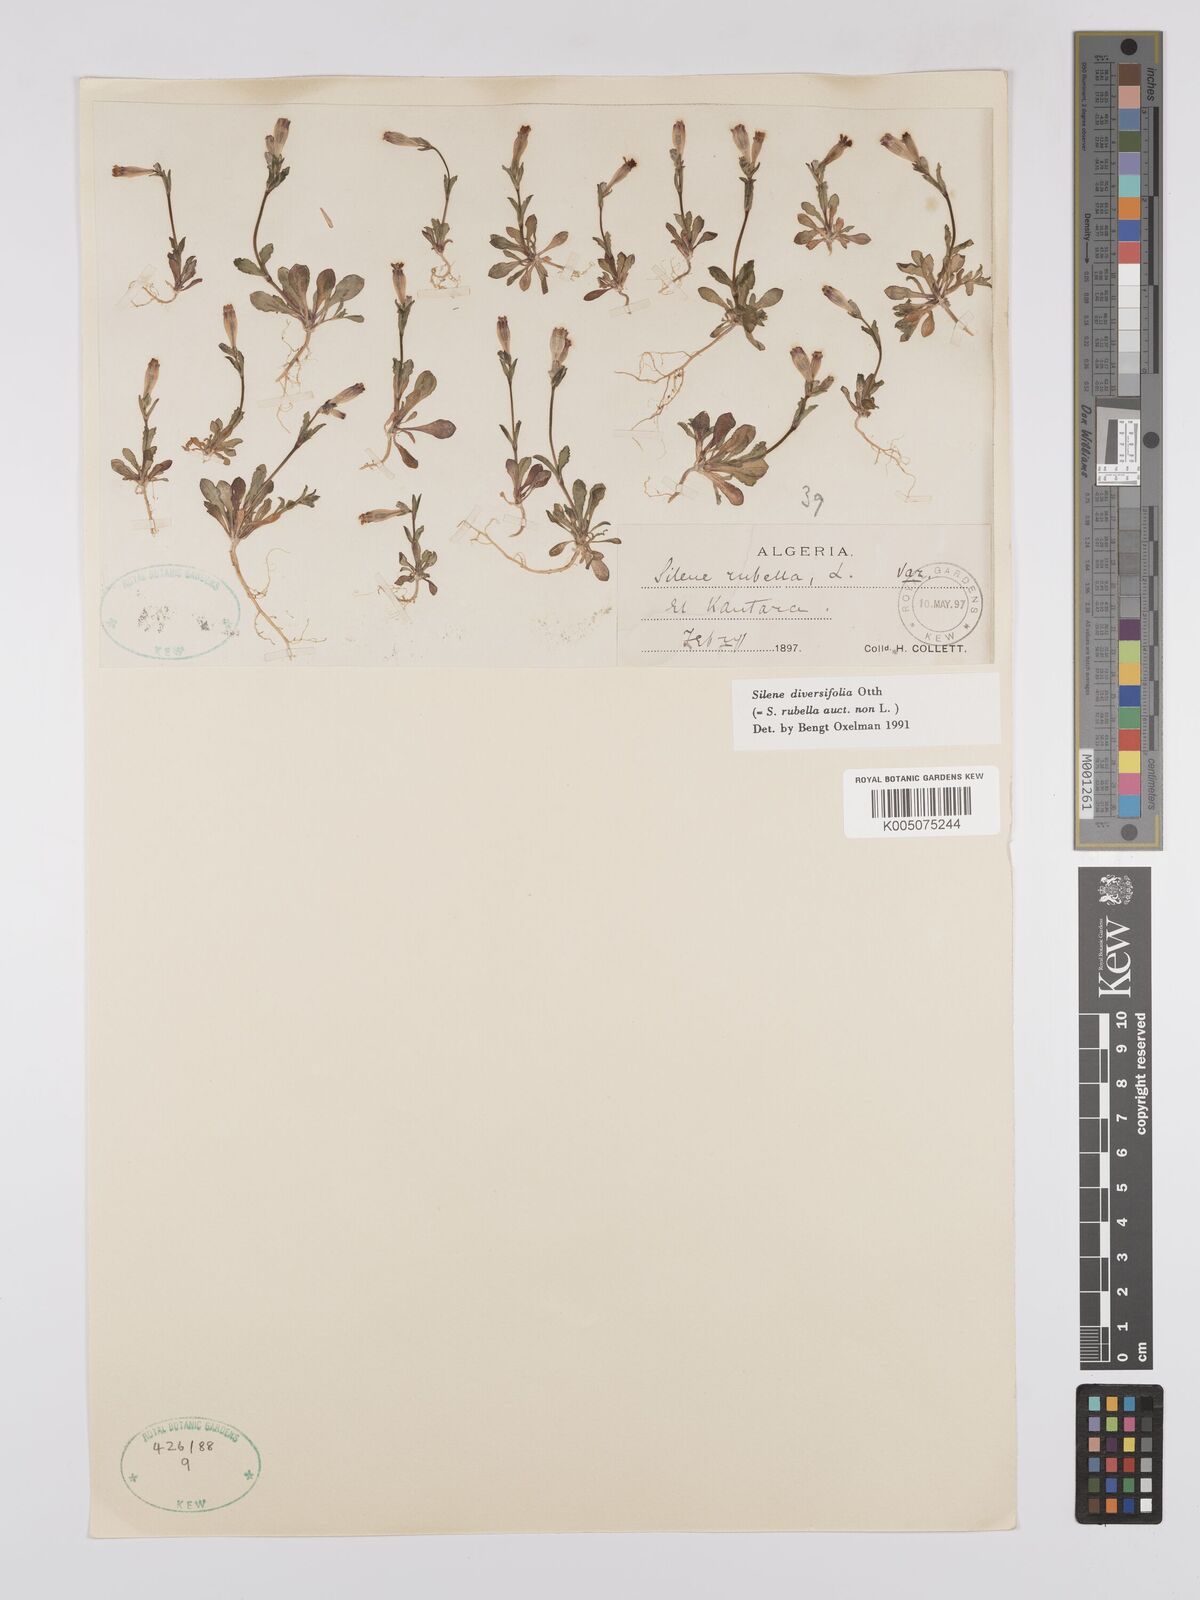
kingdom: Plantae
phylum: Tracheophyta
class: Magnoliopsida
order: Caryophyllales
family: Caryophyllaceae
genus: Silene
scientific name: Silene rubella
